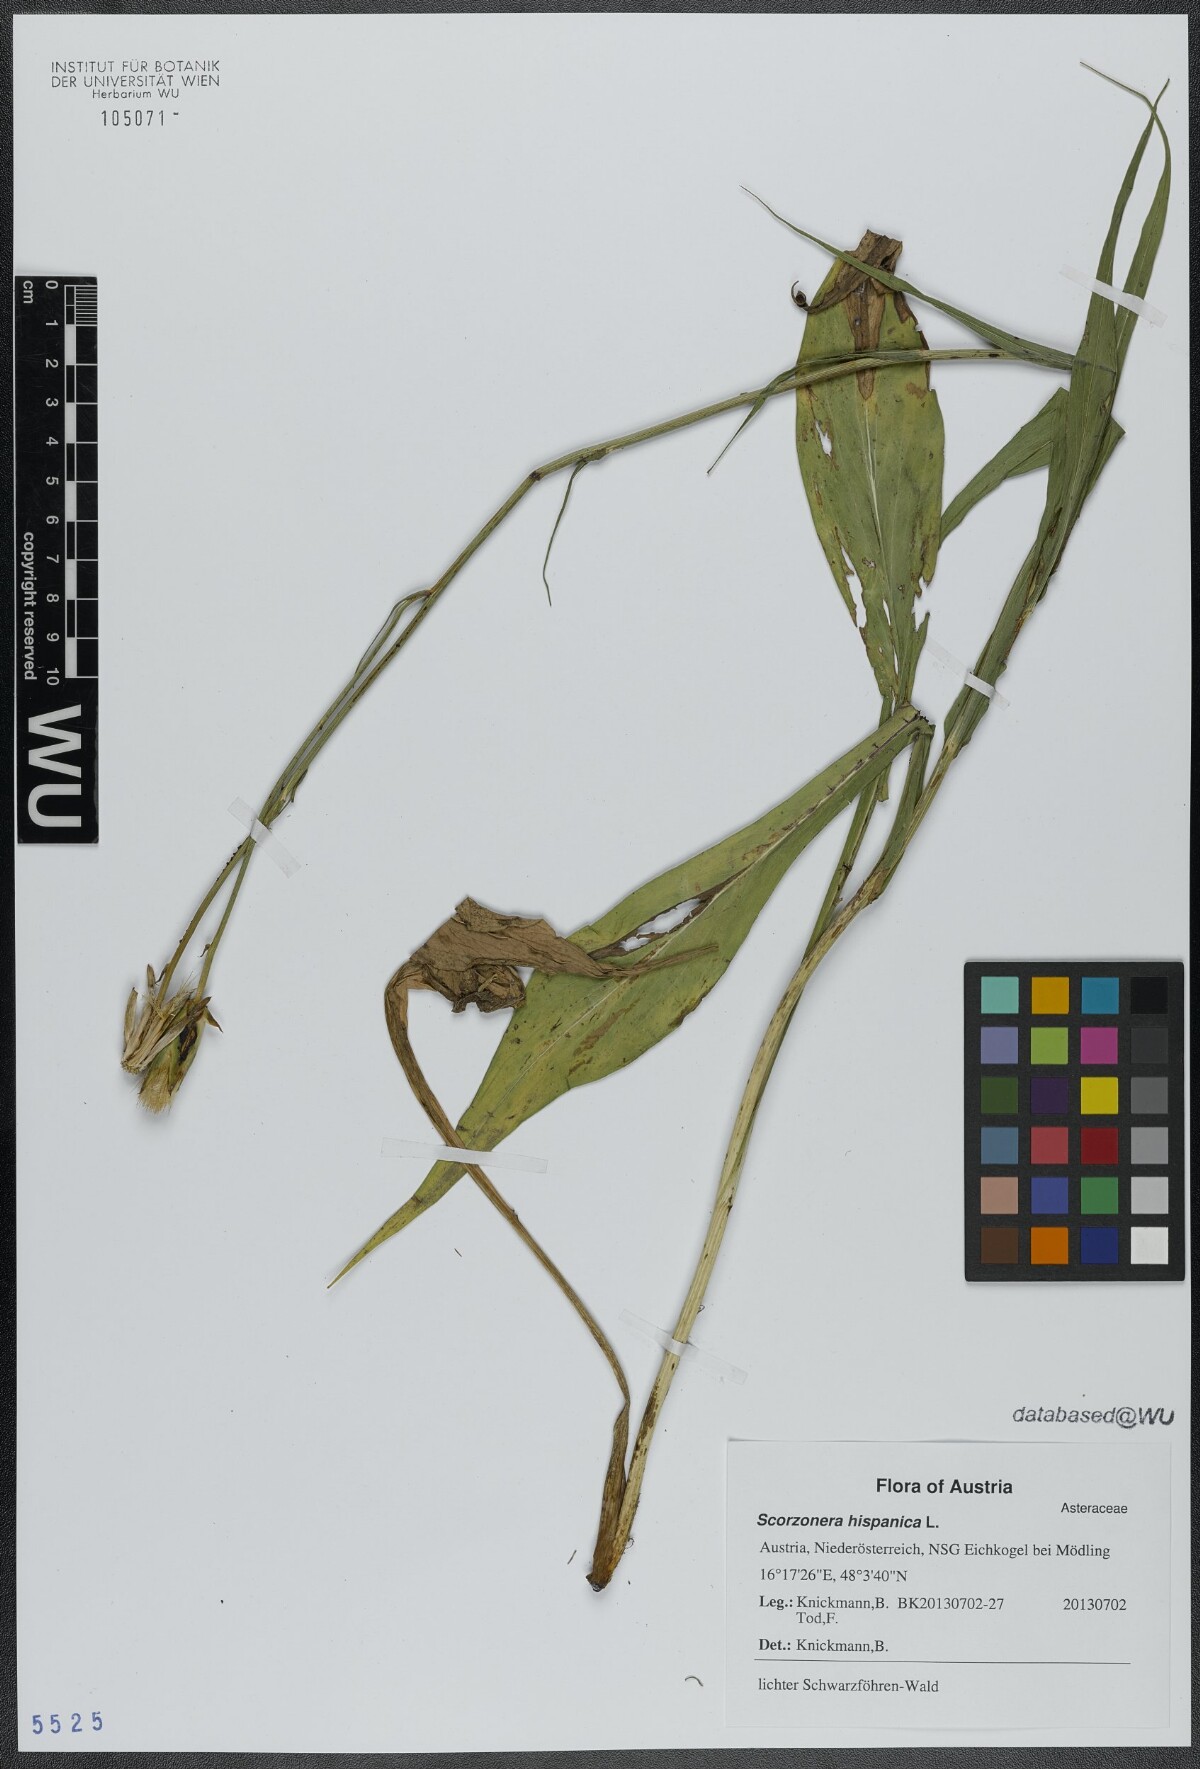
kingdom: Plantae
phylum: Tracheophyta
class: Magnoliopsida
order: Asterales
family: Asteraceae
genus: Pseudopodospermum
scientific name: Pseudopodospermum hispanicum
